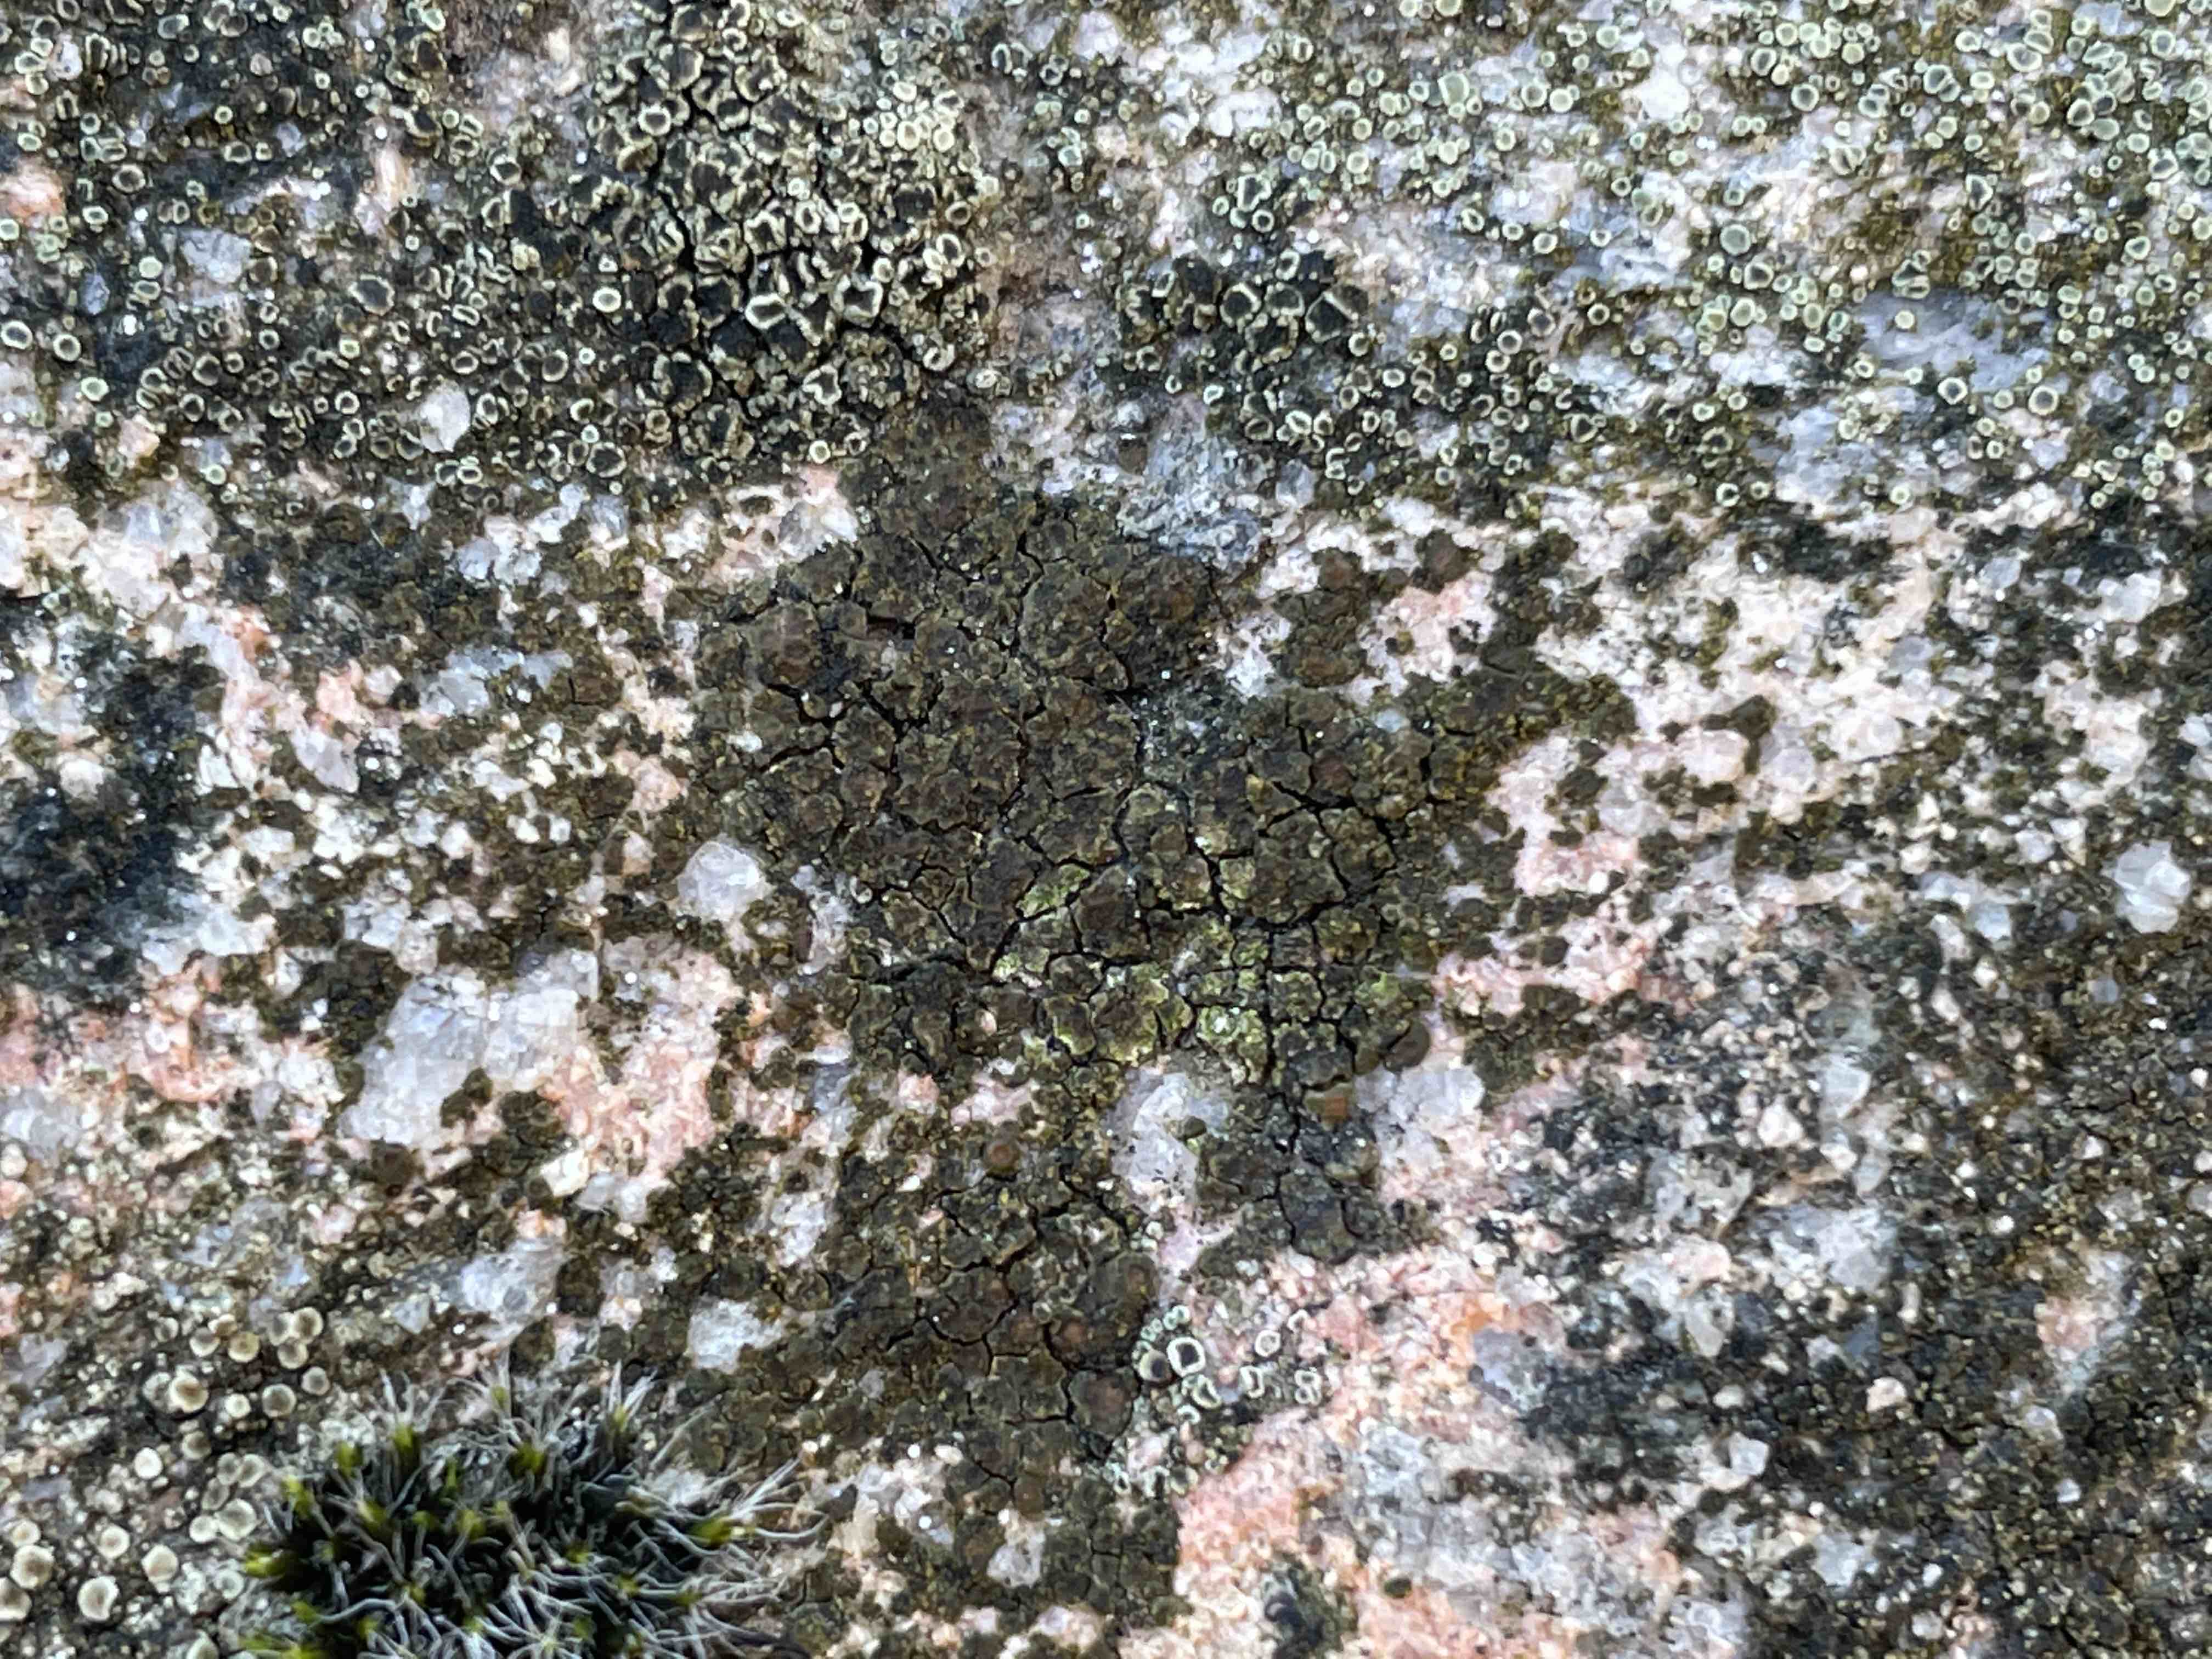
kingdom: Fungi
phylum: Ascomycota
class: Lecanoromycetes
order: Acarosporales
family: Acarosporaceae
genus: Acarospora
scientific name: Acarospora fuscata
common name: brun småsporelav
